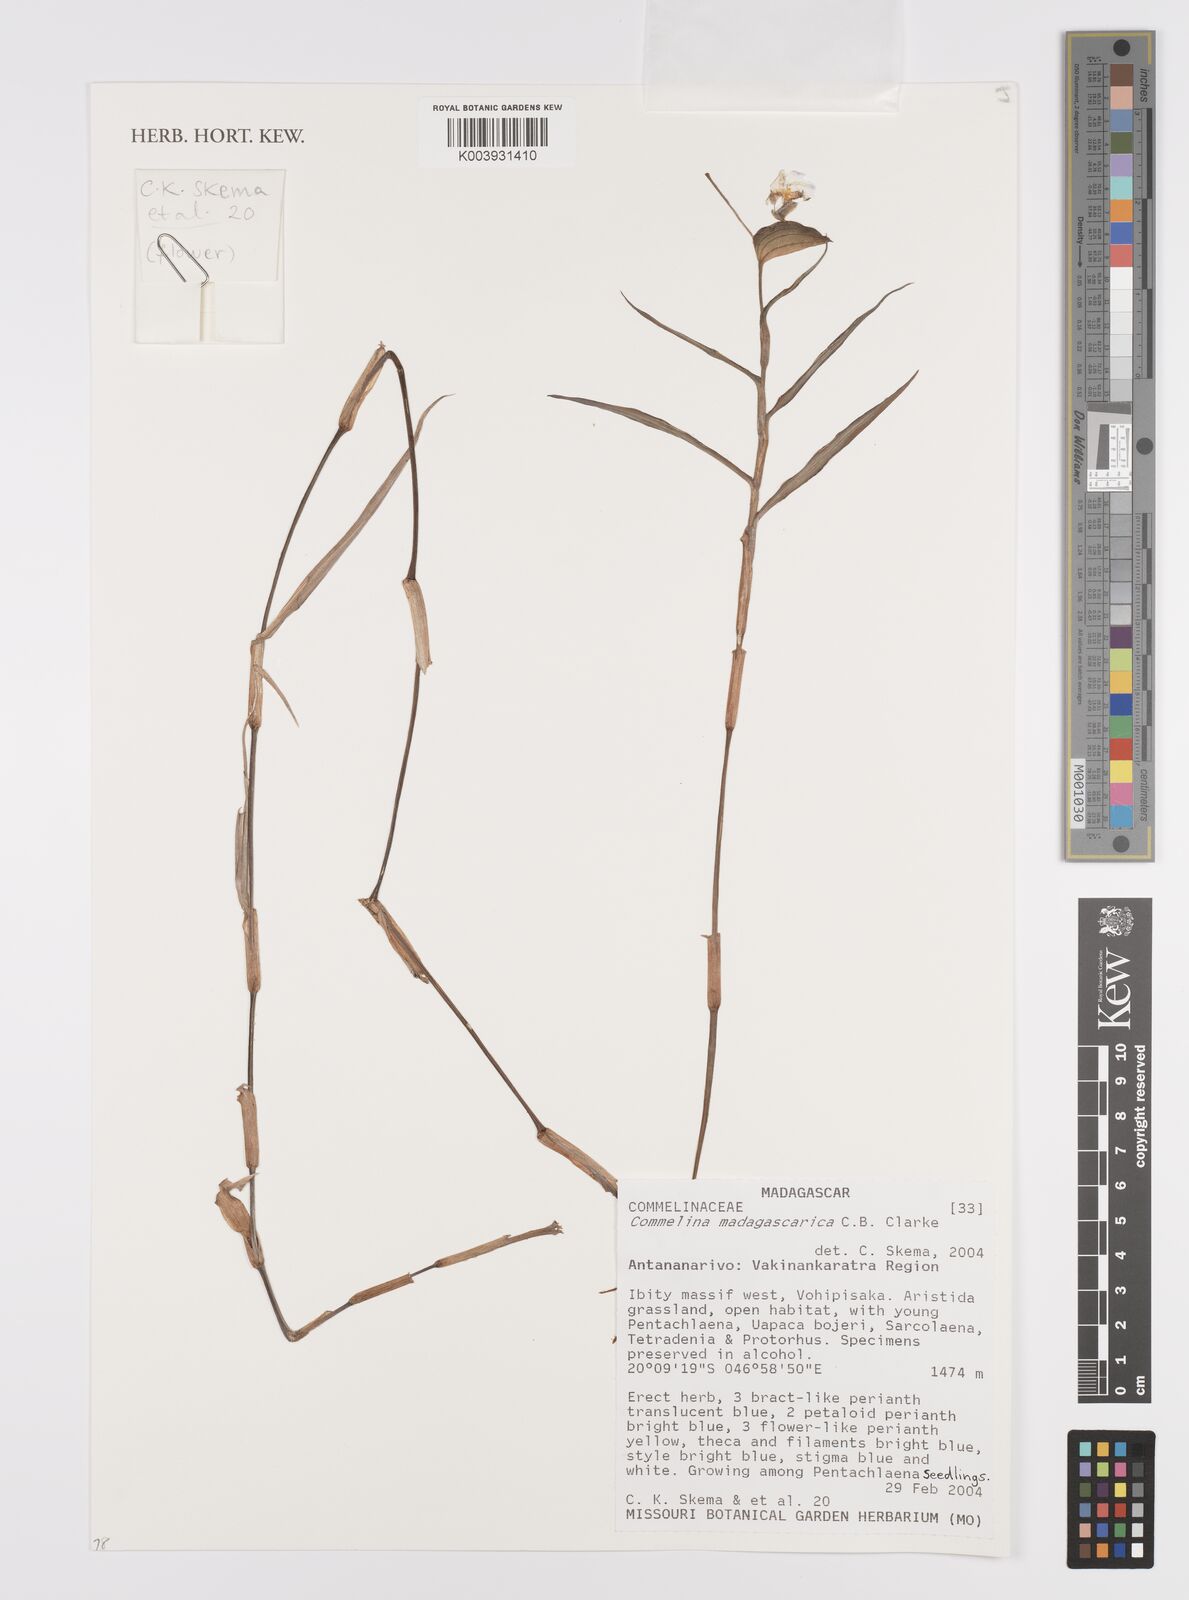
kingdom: Plantae
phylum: Tracheophyta
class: Liliopsida
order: Commelinales
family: Commelinaceae
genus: Commelina
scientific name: Commelina madagascarica
